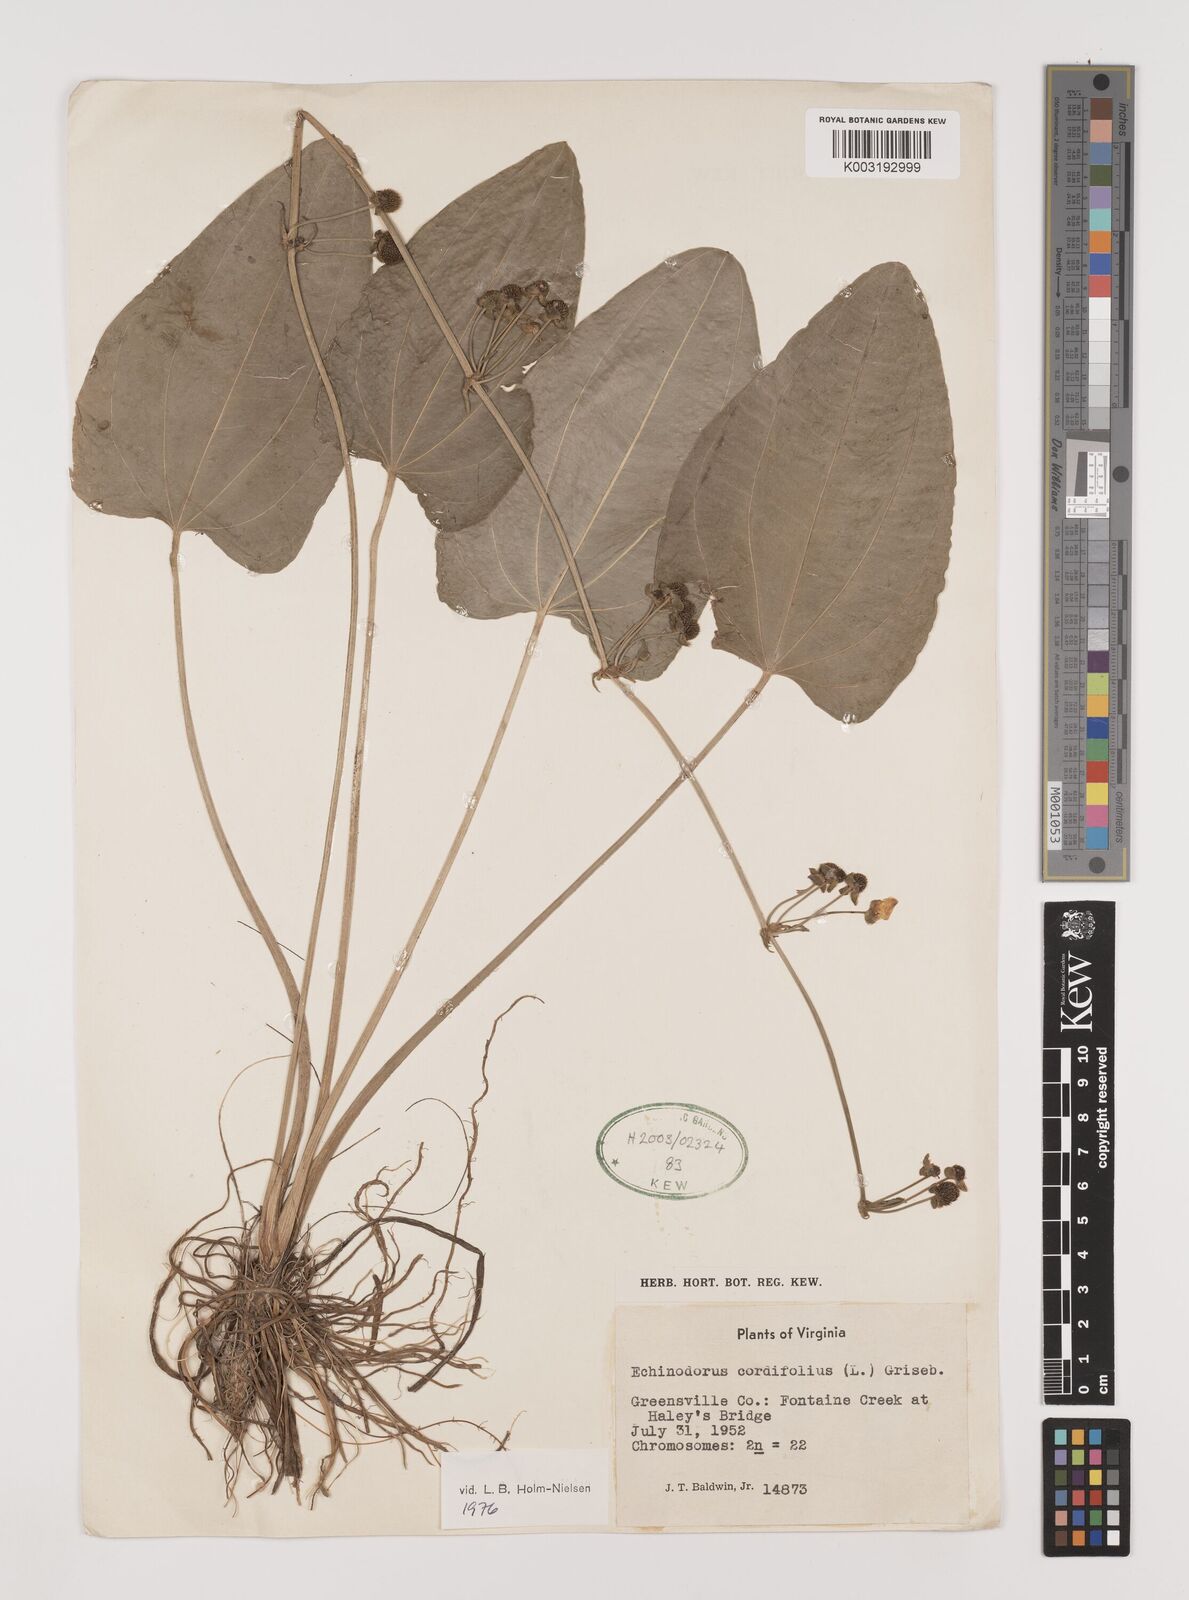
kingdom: Plantae
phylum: Tracheophyta
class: Liliopsida
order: Alismatales
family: Alismataceae
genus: Aquarius
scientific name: Aquarius cordifolius
